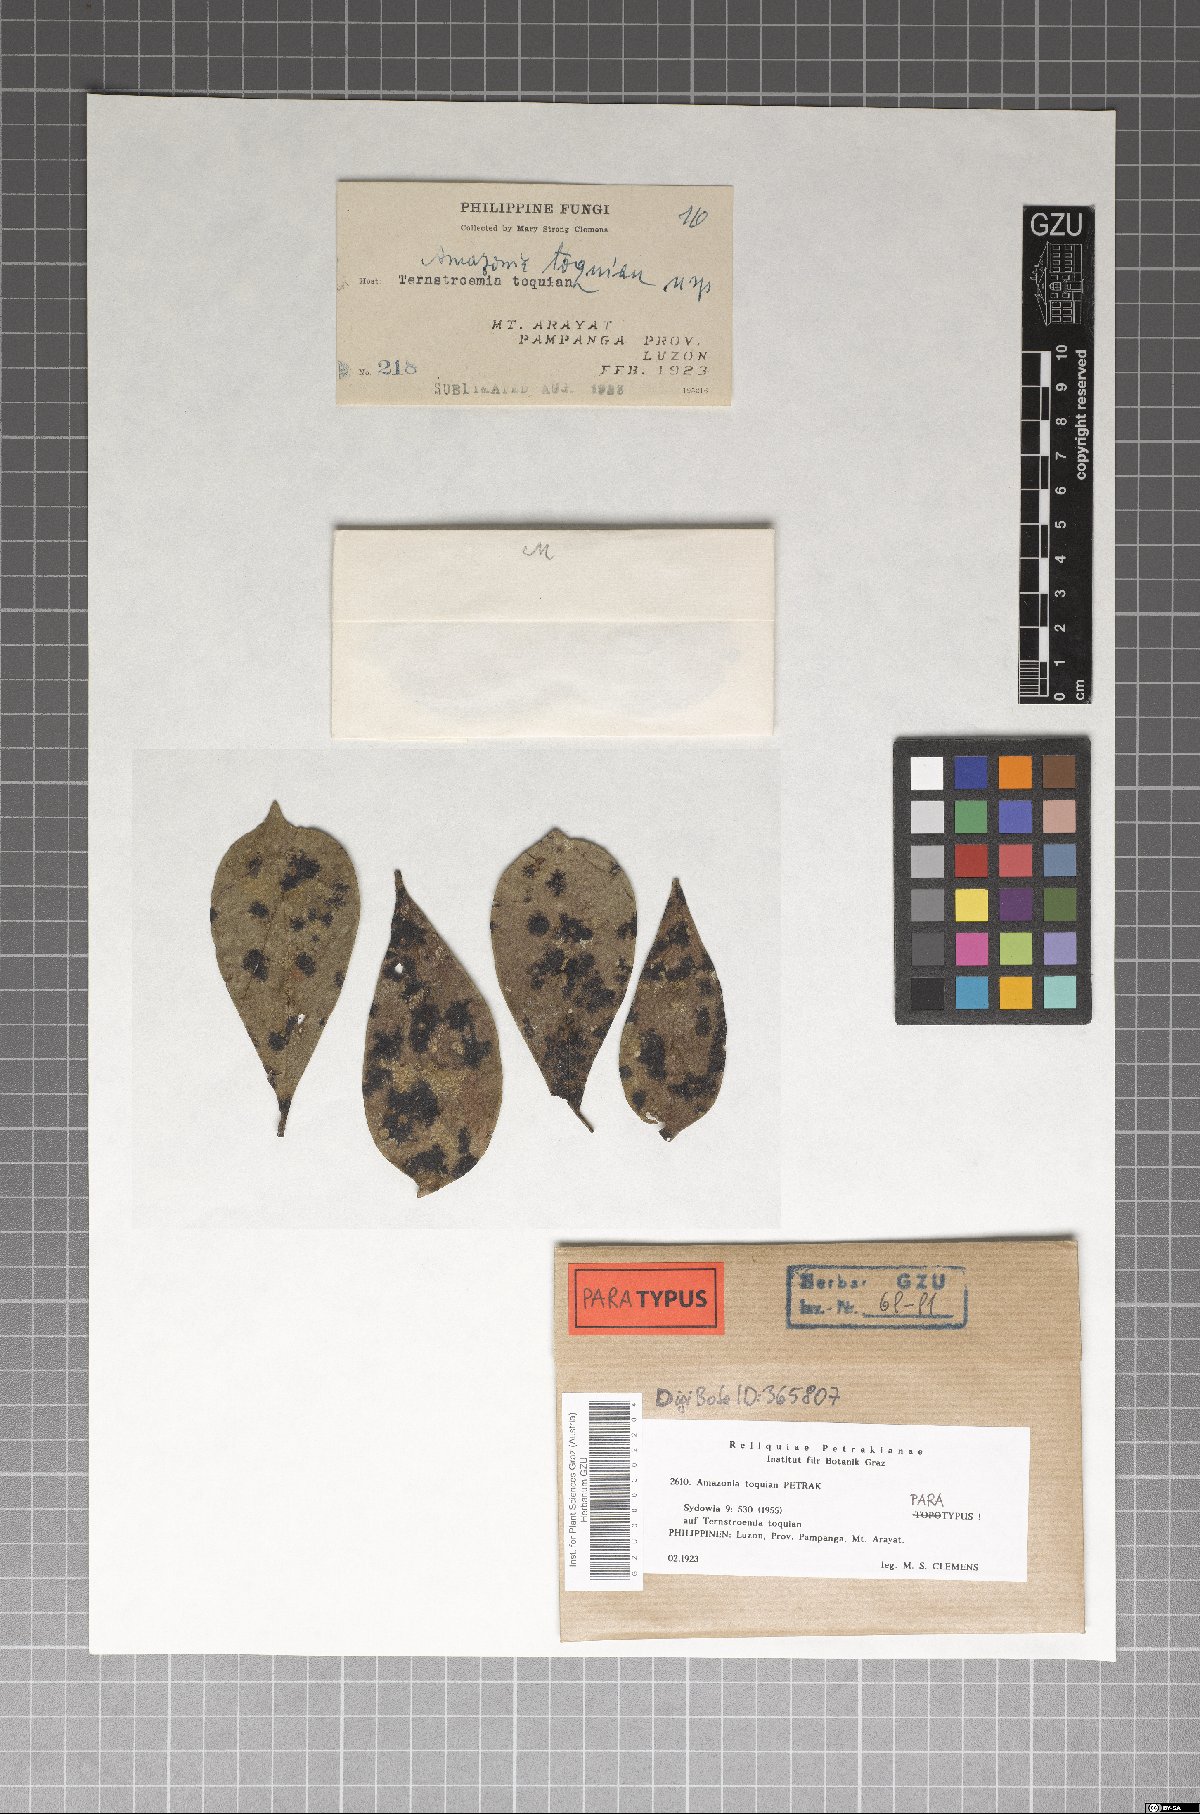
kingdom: Fungi
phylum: Ascomycota
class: Sordariomycetes
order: Meliolales
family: Meliolaceae
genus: Amazonia
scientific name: Amazonia toquian
